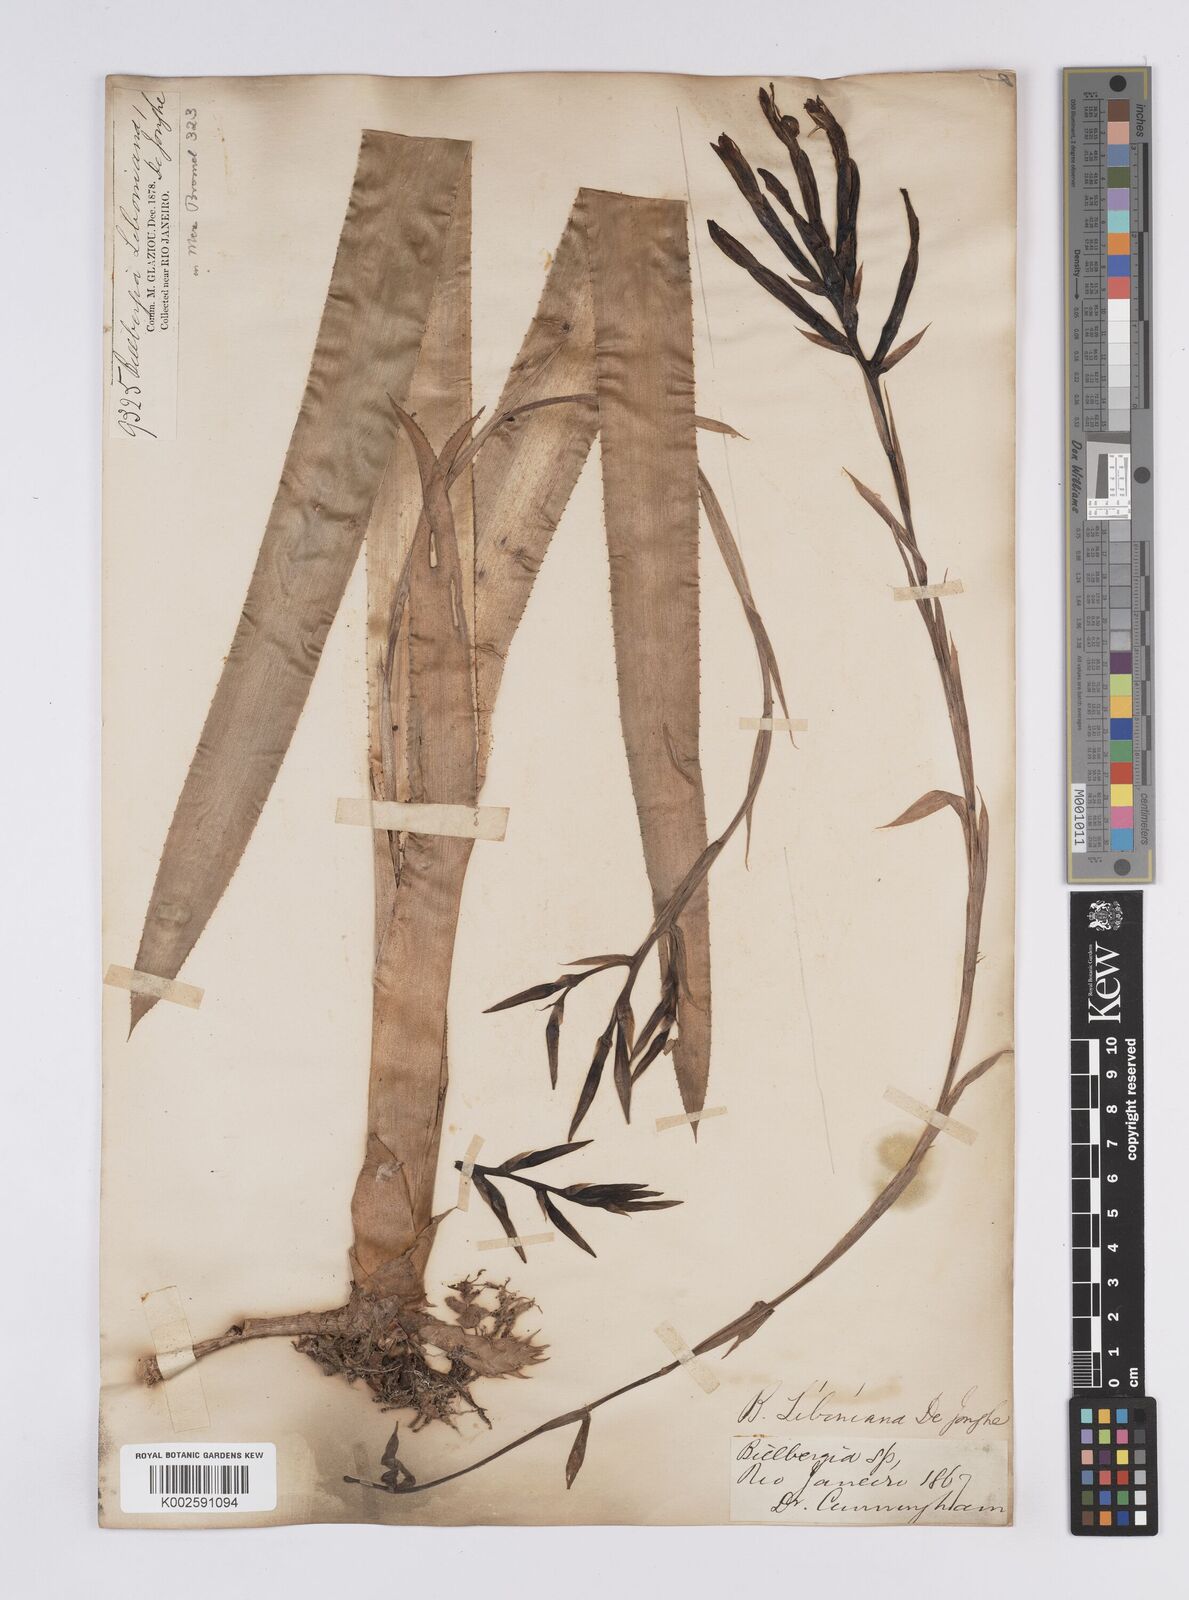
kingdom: Plantae
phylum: Tracheophyta
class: Liliopsida
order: Poales
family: Bromeliaceae
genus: Quesnelia
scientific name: Quesnelia liboniana
